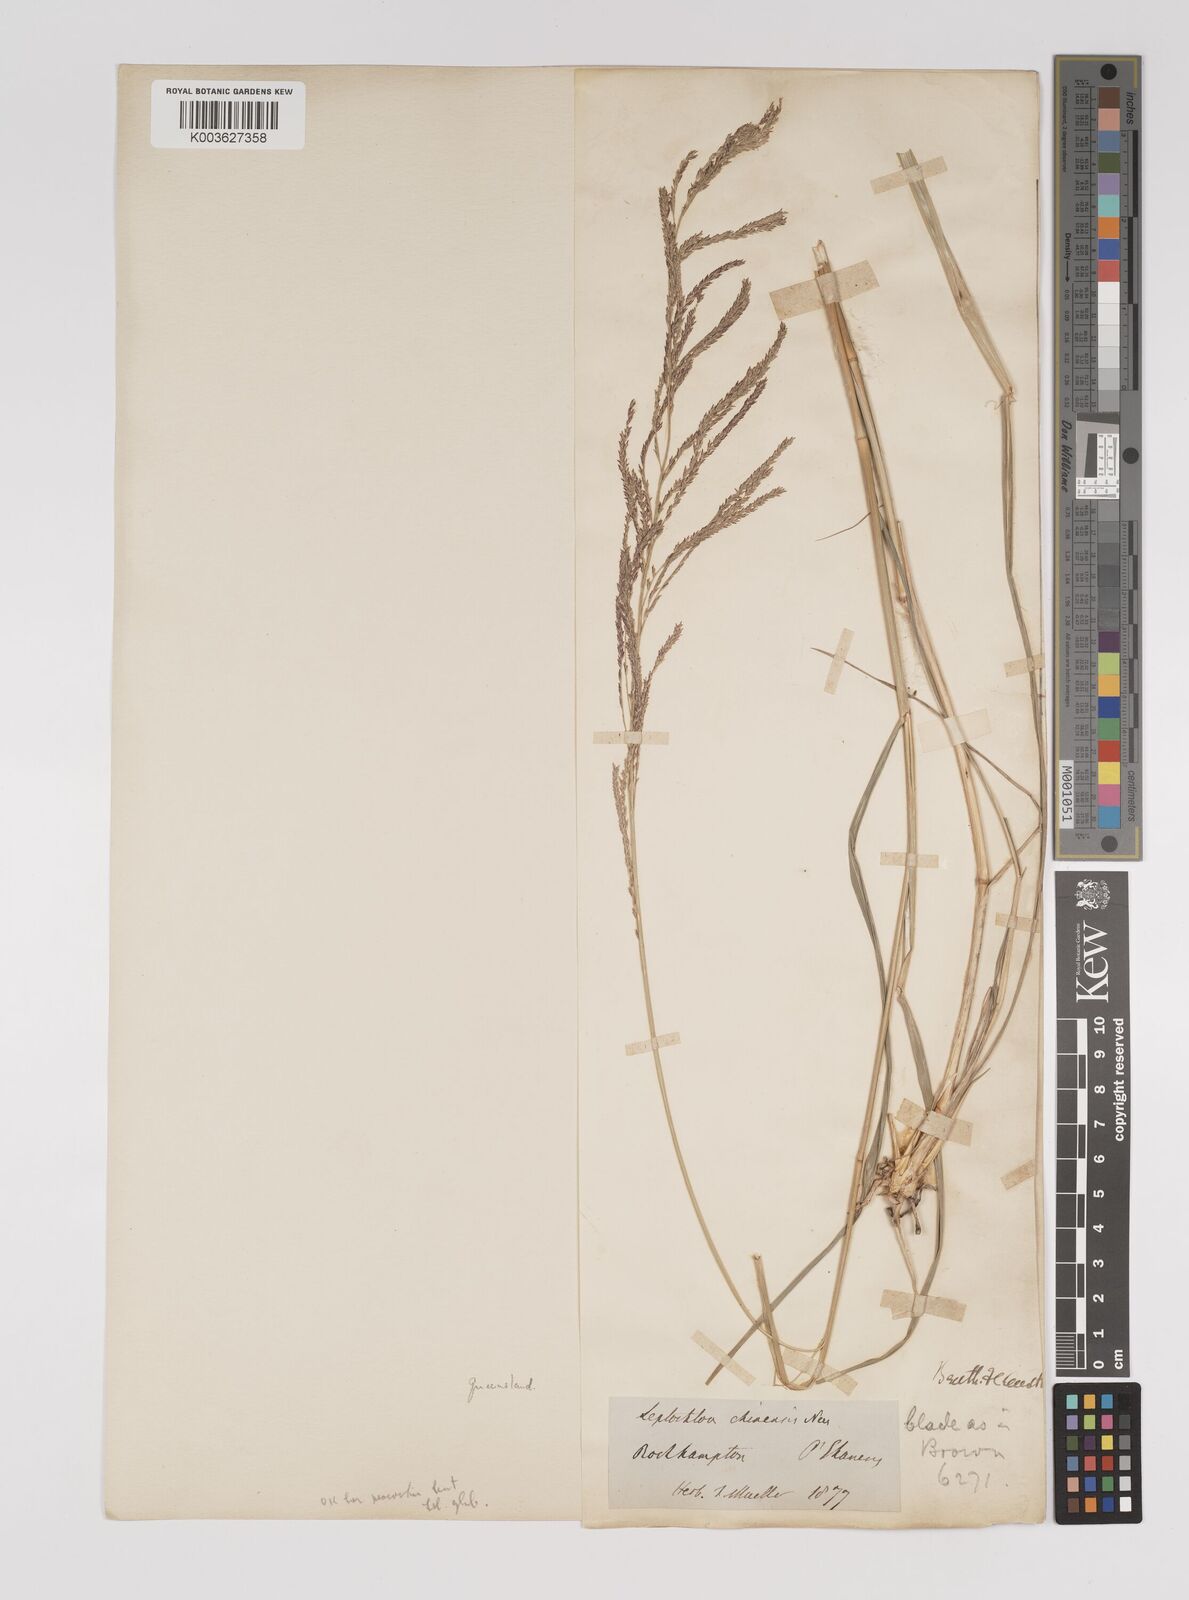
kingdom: Plantae
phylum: Tracheophyta
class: Liliopsida
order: Poales
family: Poaceae
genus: Leptochloa
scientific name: Leptochloa decipiens
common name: Australian sprangletop
